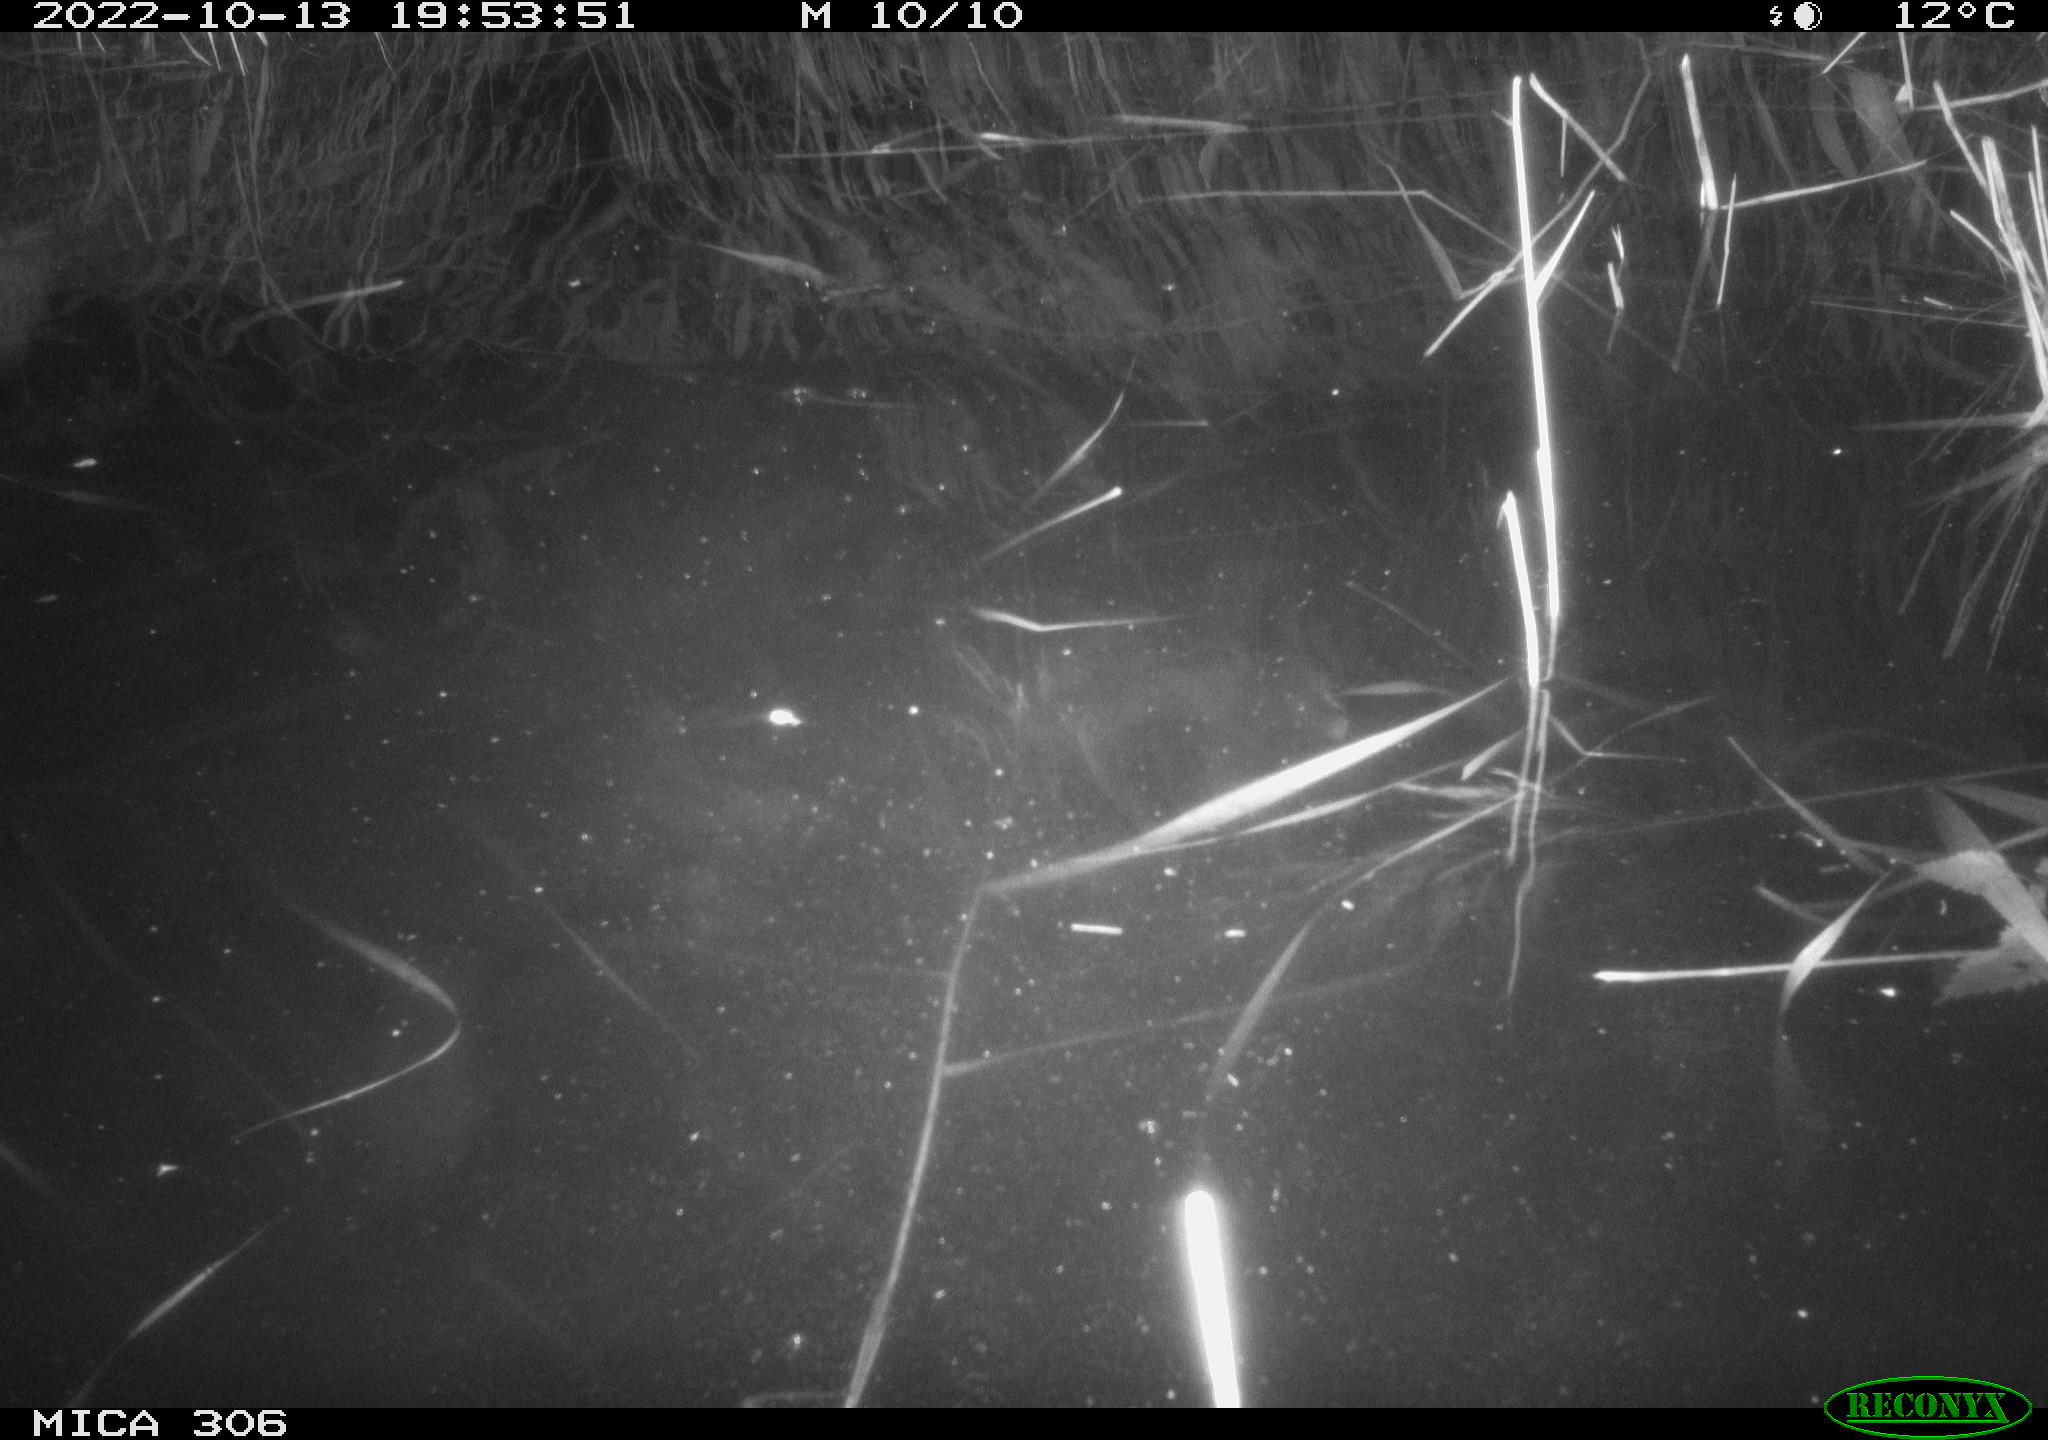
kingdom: Animalia
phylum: Chordata
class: Mammalia
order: Rodentia
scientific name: Rodentia
